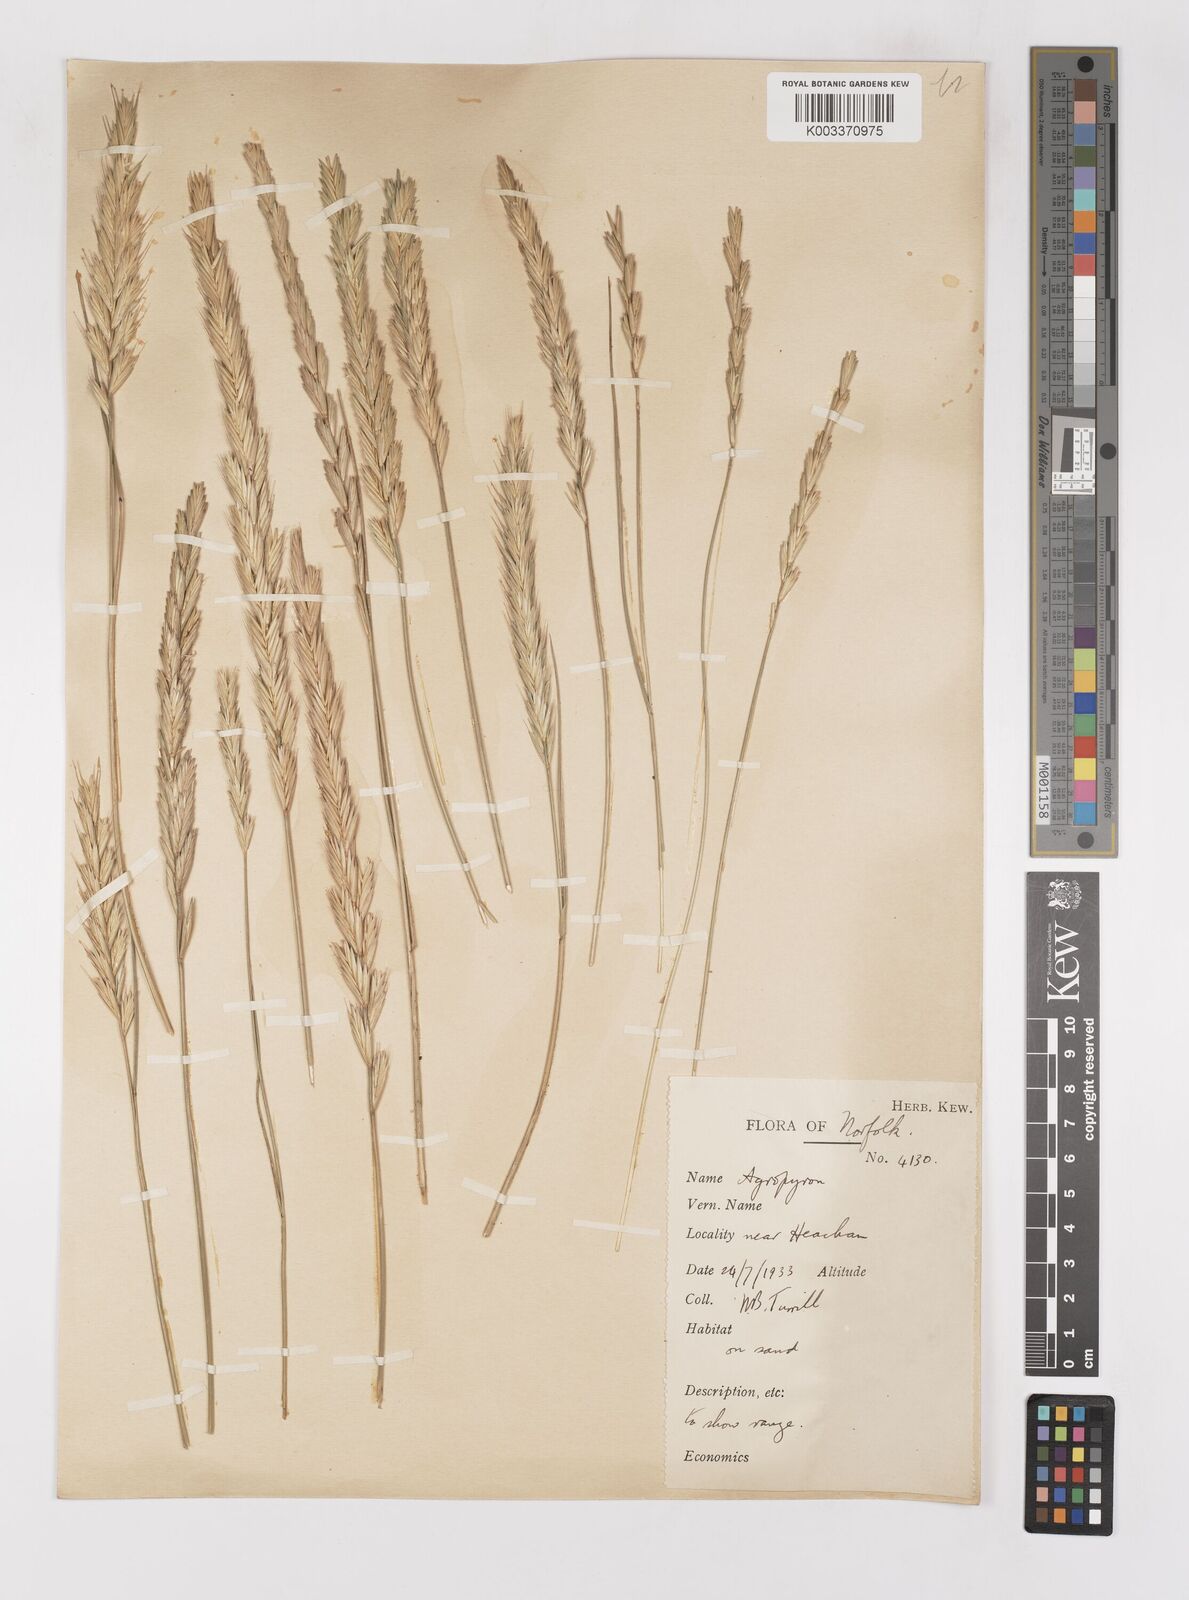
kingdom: Plantae
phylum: Tracheophyta
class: Liliopsida
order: Poales
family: Poaceae
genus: Elymus
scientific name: Elymus repens
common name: Quackgrass
